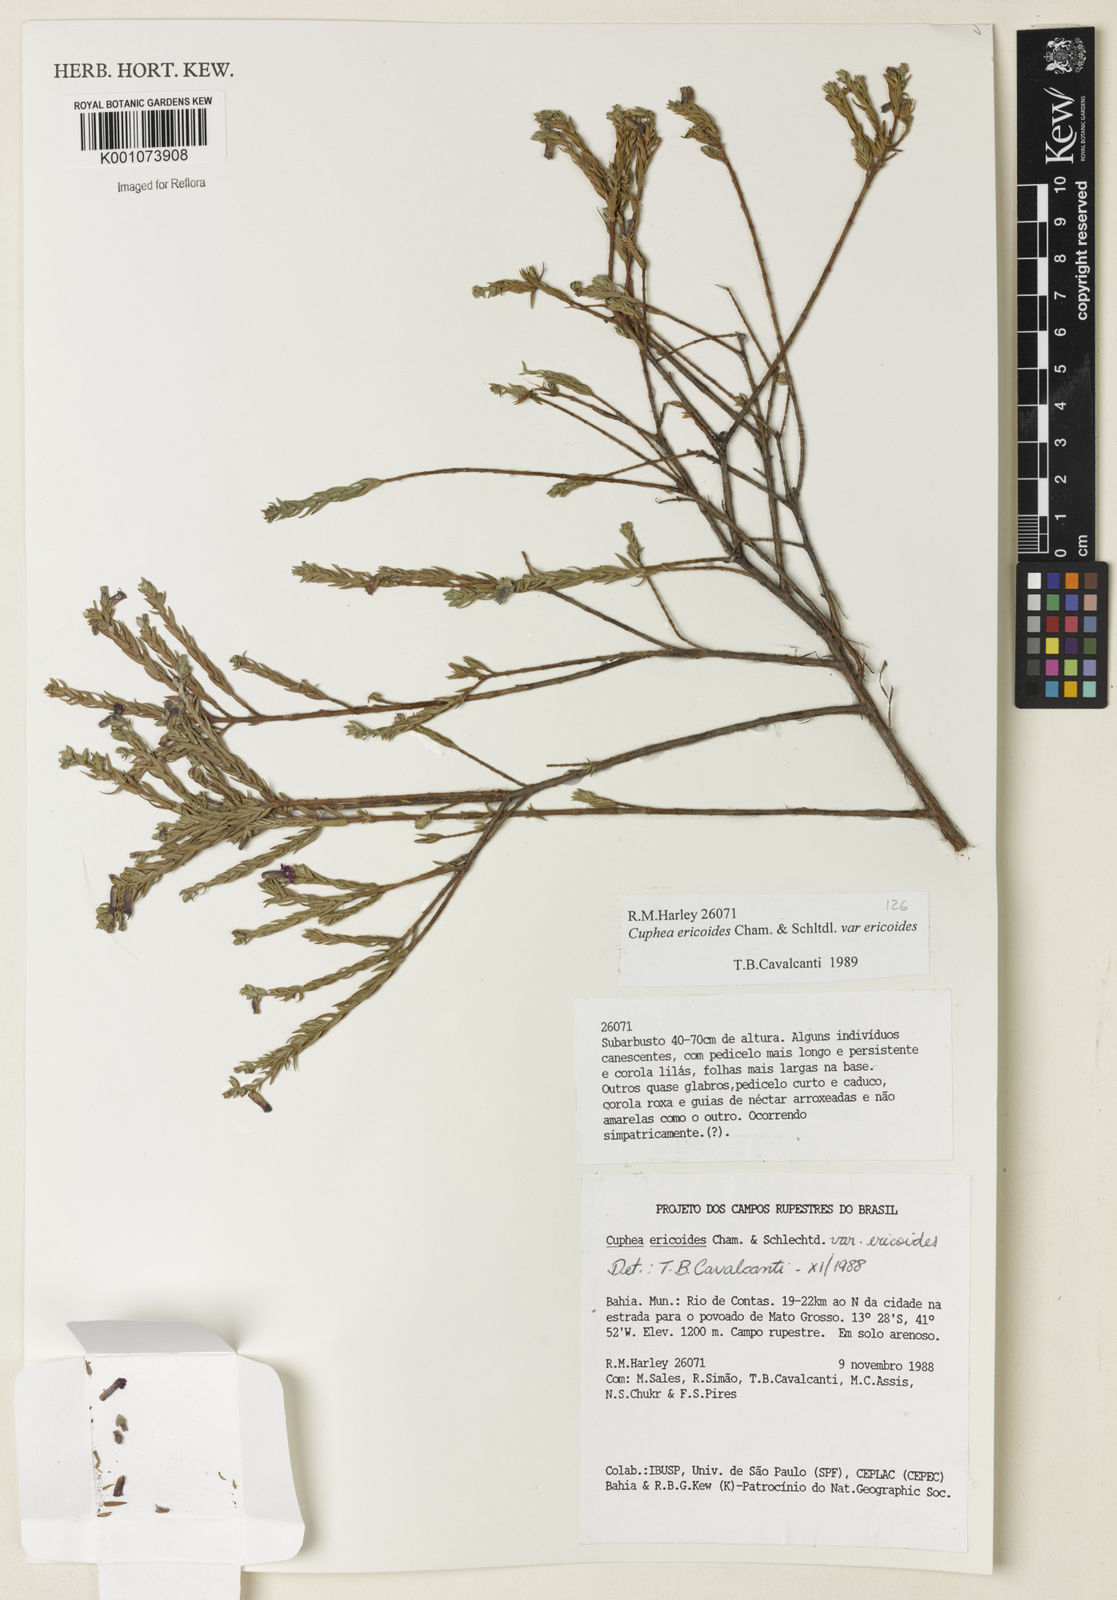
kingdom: Plantae
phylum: Tracheophyta
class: Magnoliopsida
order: Myrtales
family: Lythraceae
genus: Cuphea
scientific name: Cuphea ericoides
